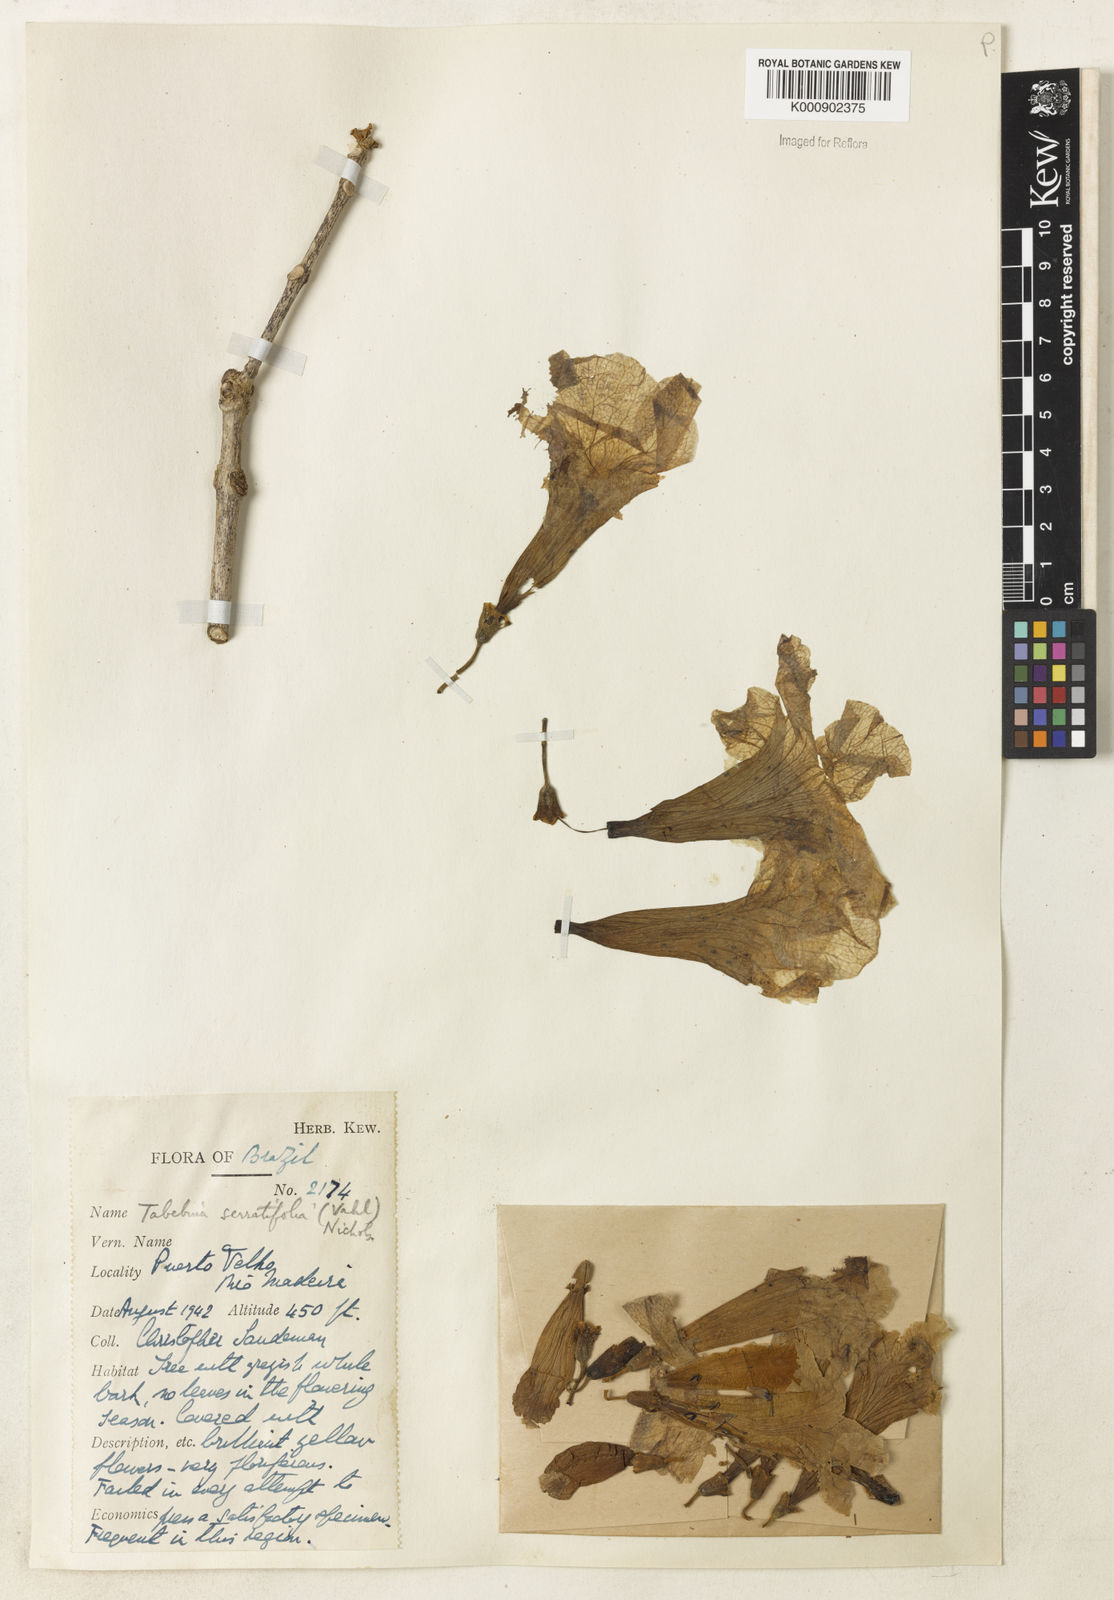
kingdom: Plantae
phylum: Tracheophyta
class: Magnoliopsida
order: Lamiales
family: Bignoniaceae
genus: Handroanthus
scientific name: Handroanthus serratifolius
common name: Yellow ipe
